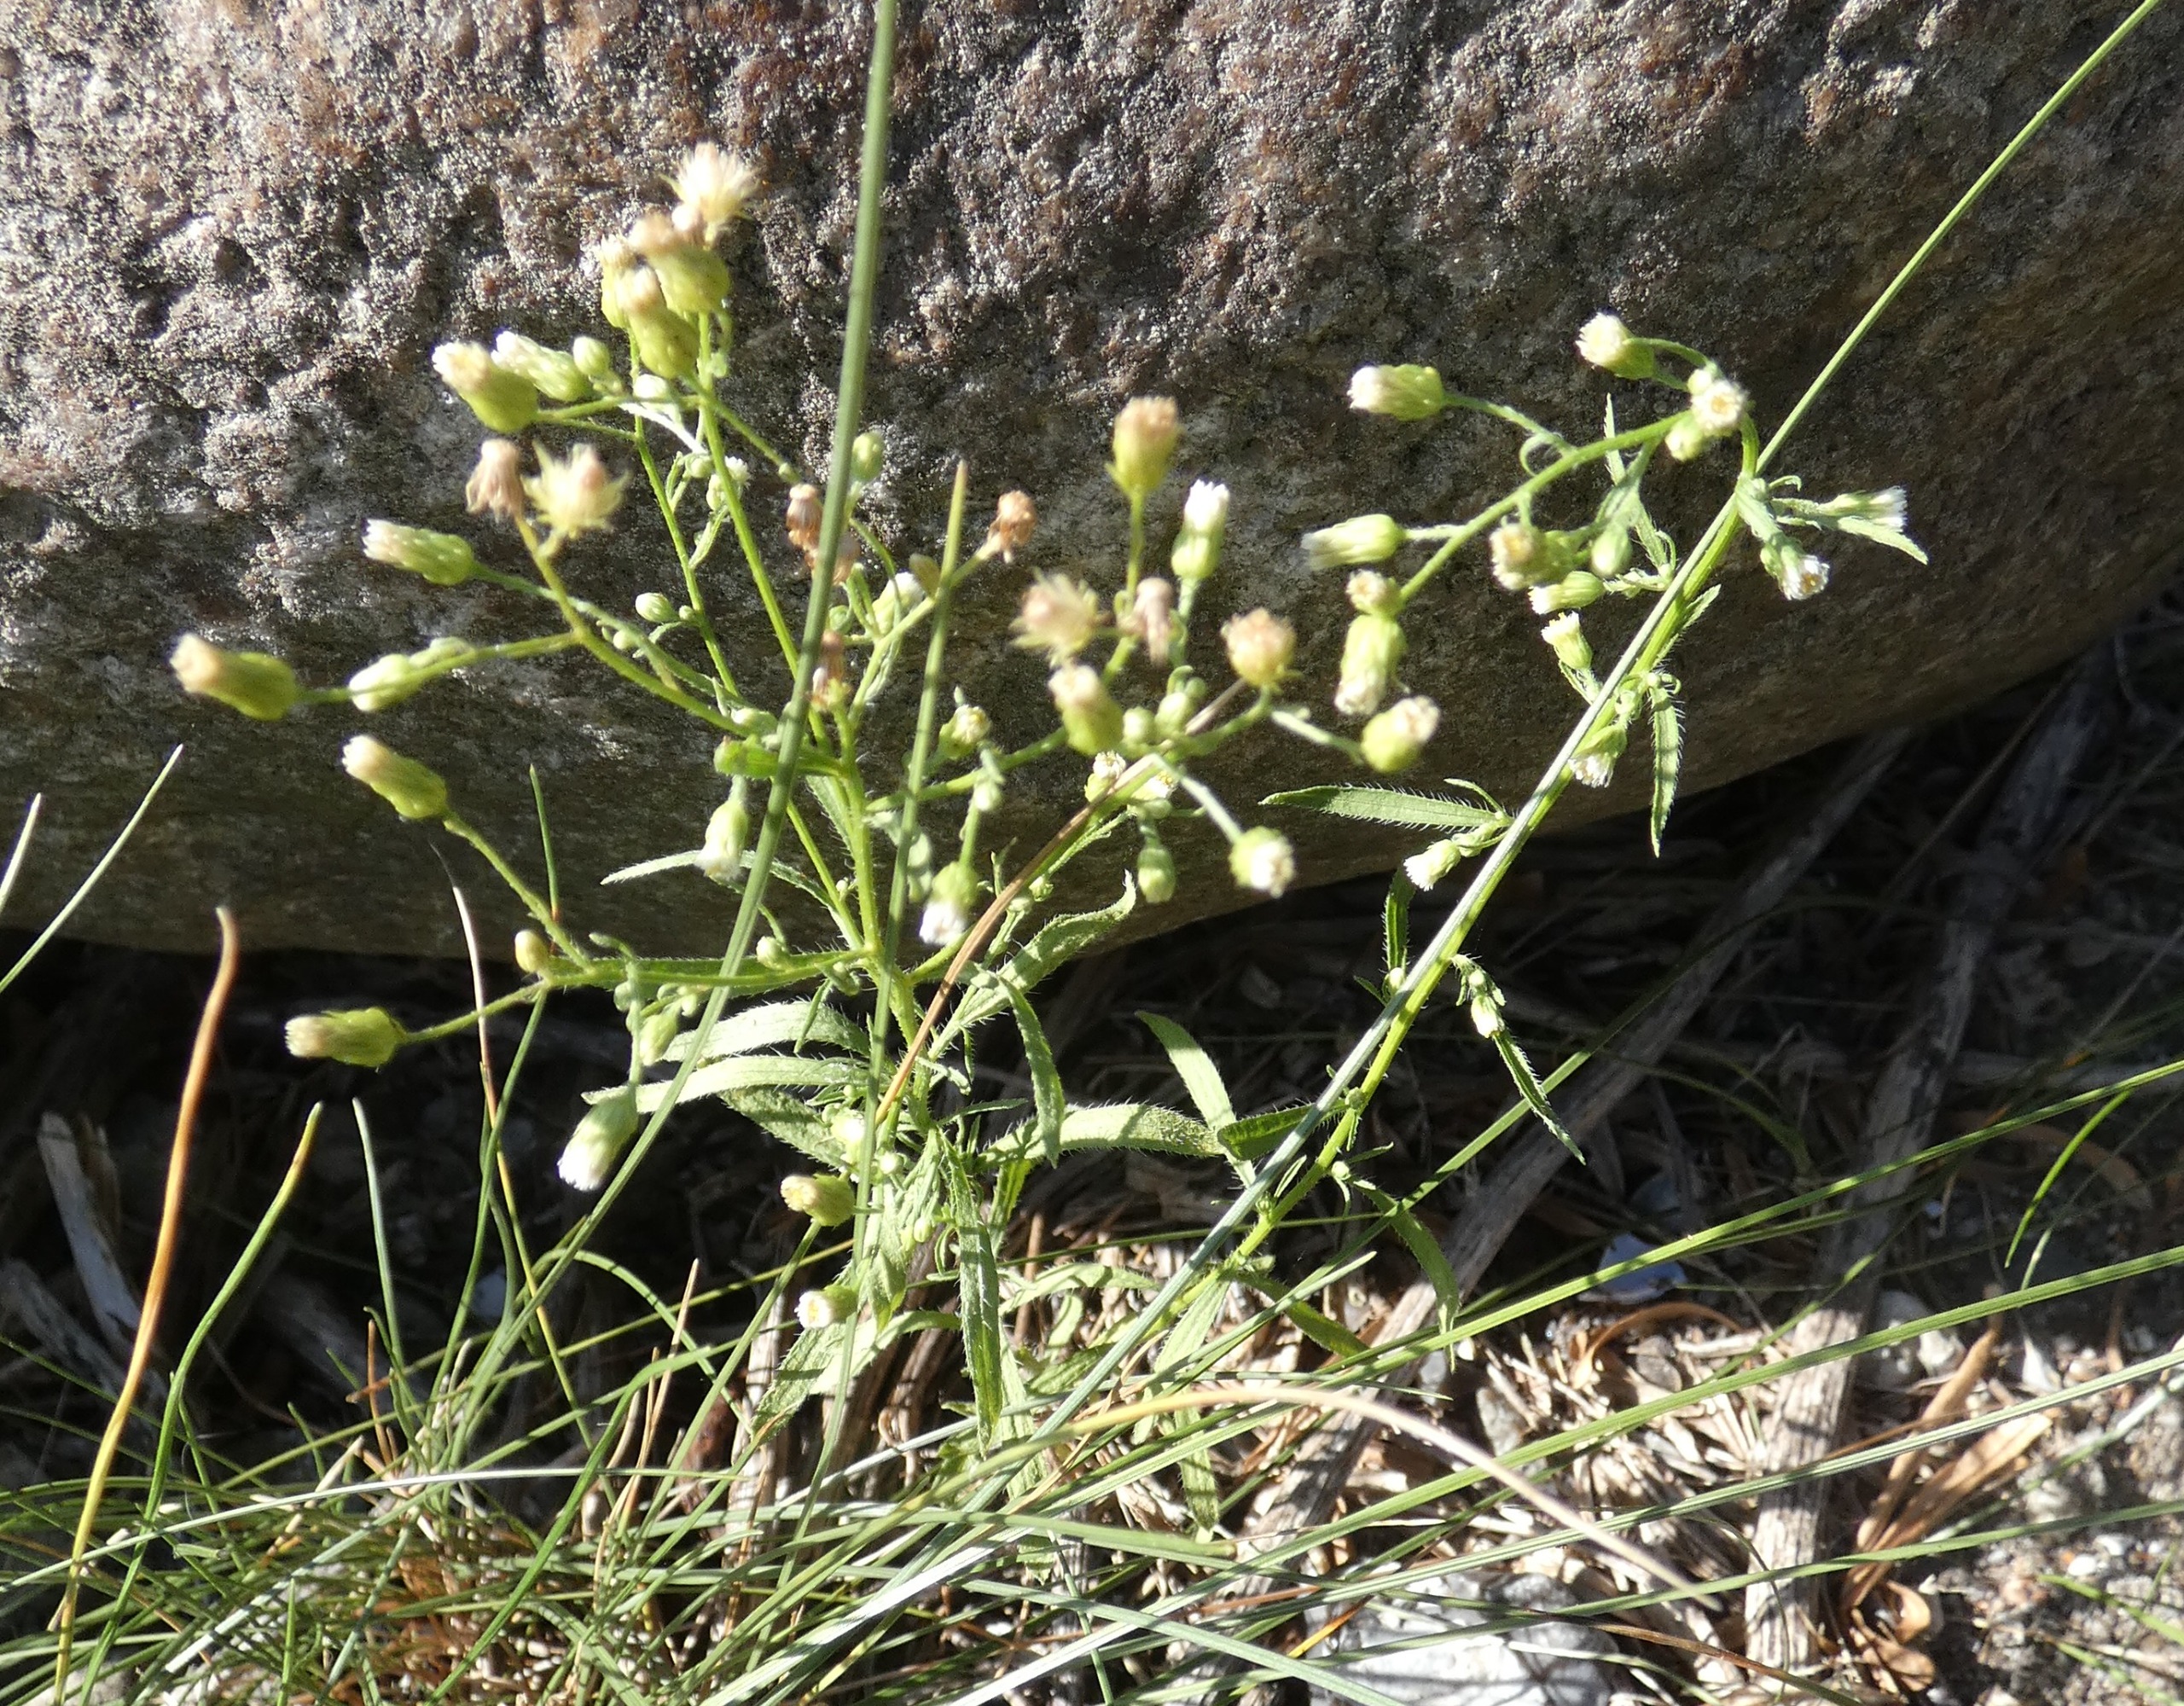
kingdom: Plantae
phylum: Tracheophyta
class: Magnoliopsida
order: Asterales
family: Asteraceae
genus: Erigeron
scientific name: Erigeron canadensis
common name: Kanadisk bakkestjerne
